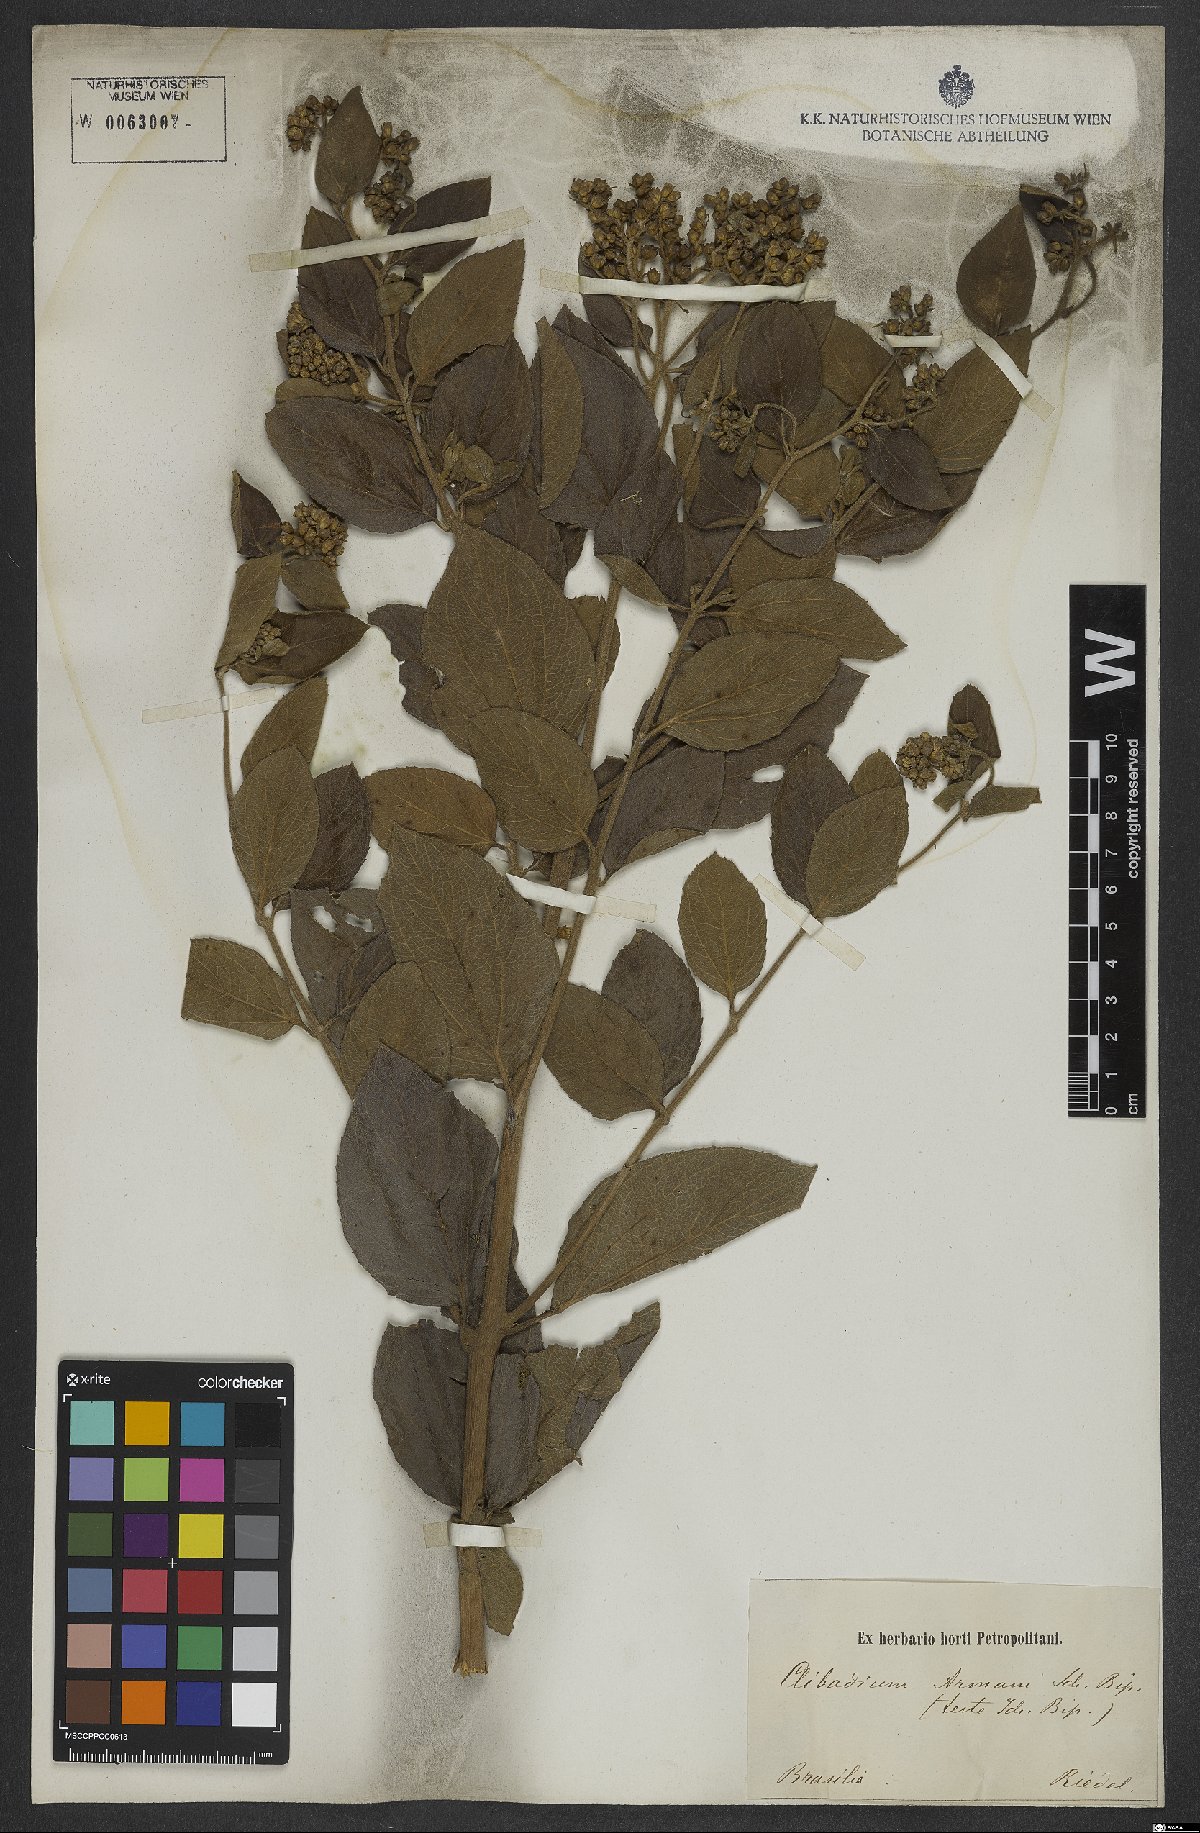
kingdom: Plantae
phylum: Tracheophyta
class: Magnoliopsida
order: Asterales
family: Asteraceae
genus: Clibadium
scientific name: Clibadium armanii
